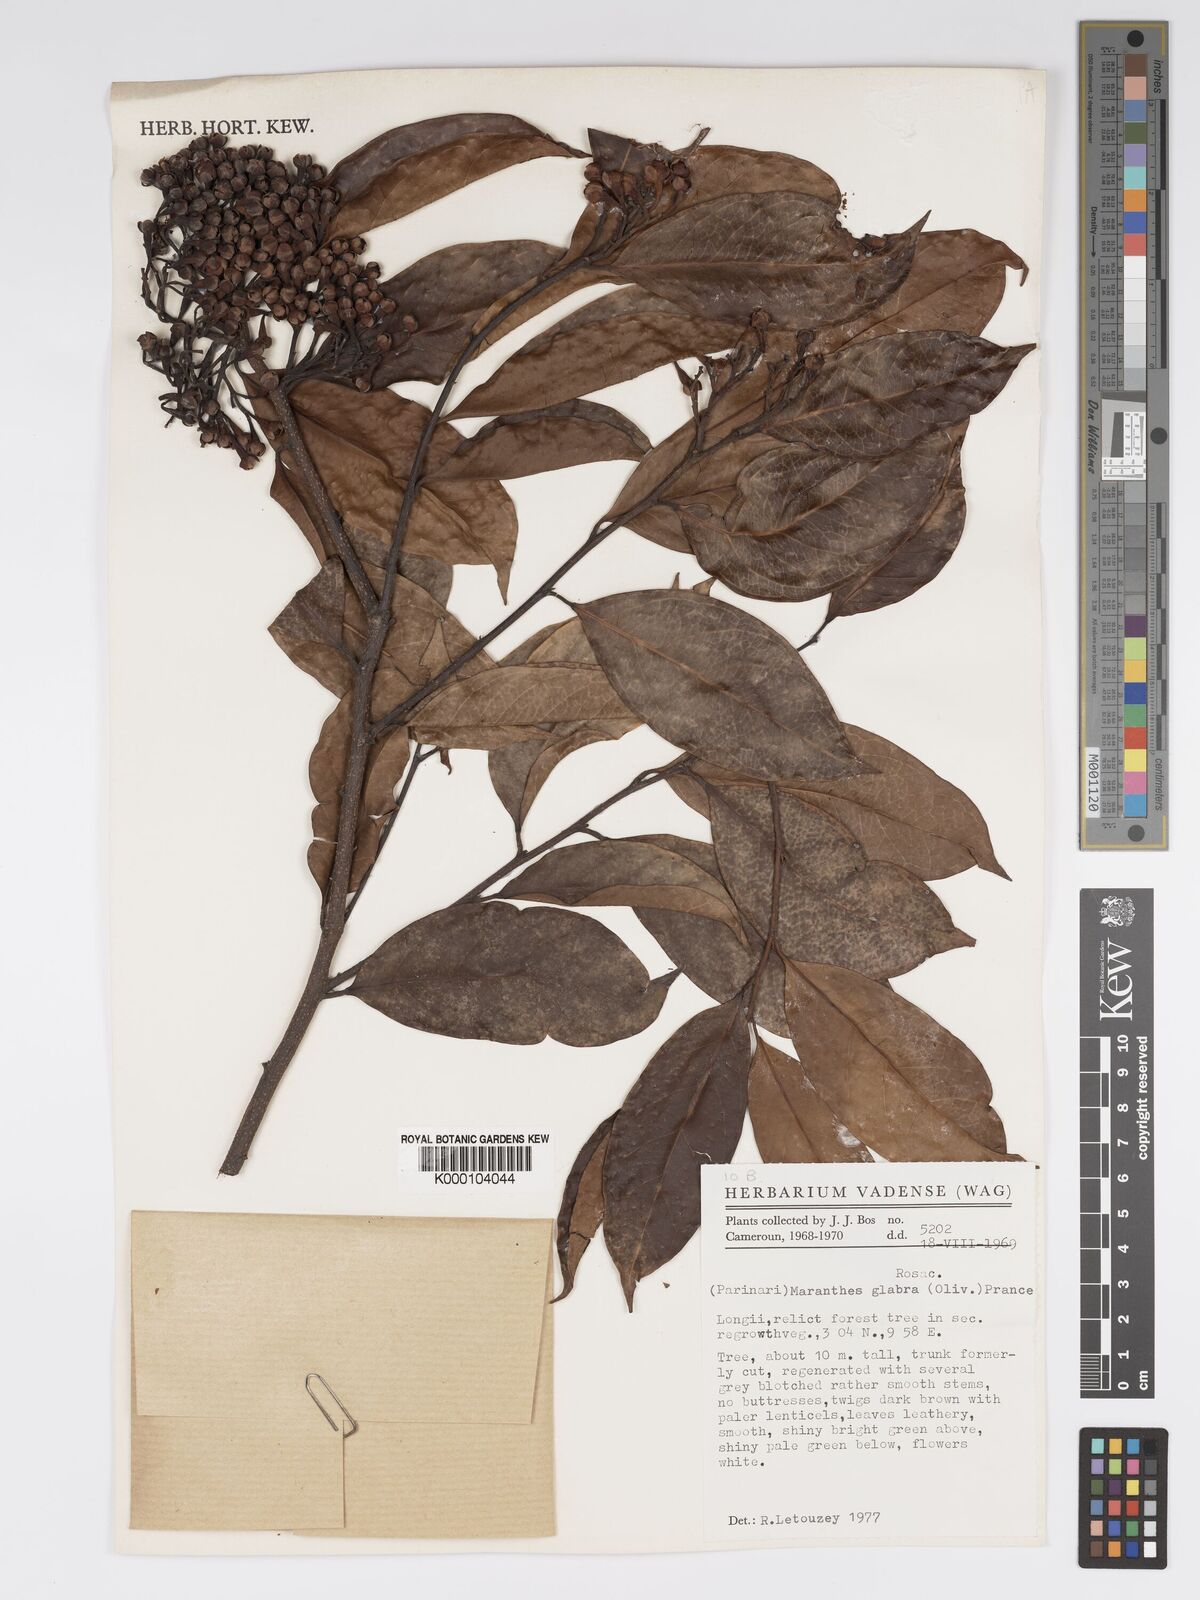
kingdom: Plantae
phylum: Tracheophyta
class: Magnoliopsida
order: Malpighiales
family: Chrysobalanaceae
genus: Maranthes
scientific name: Maranthes glabra
